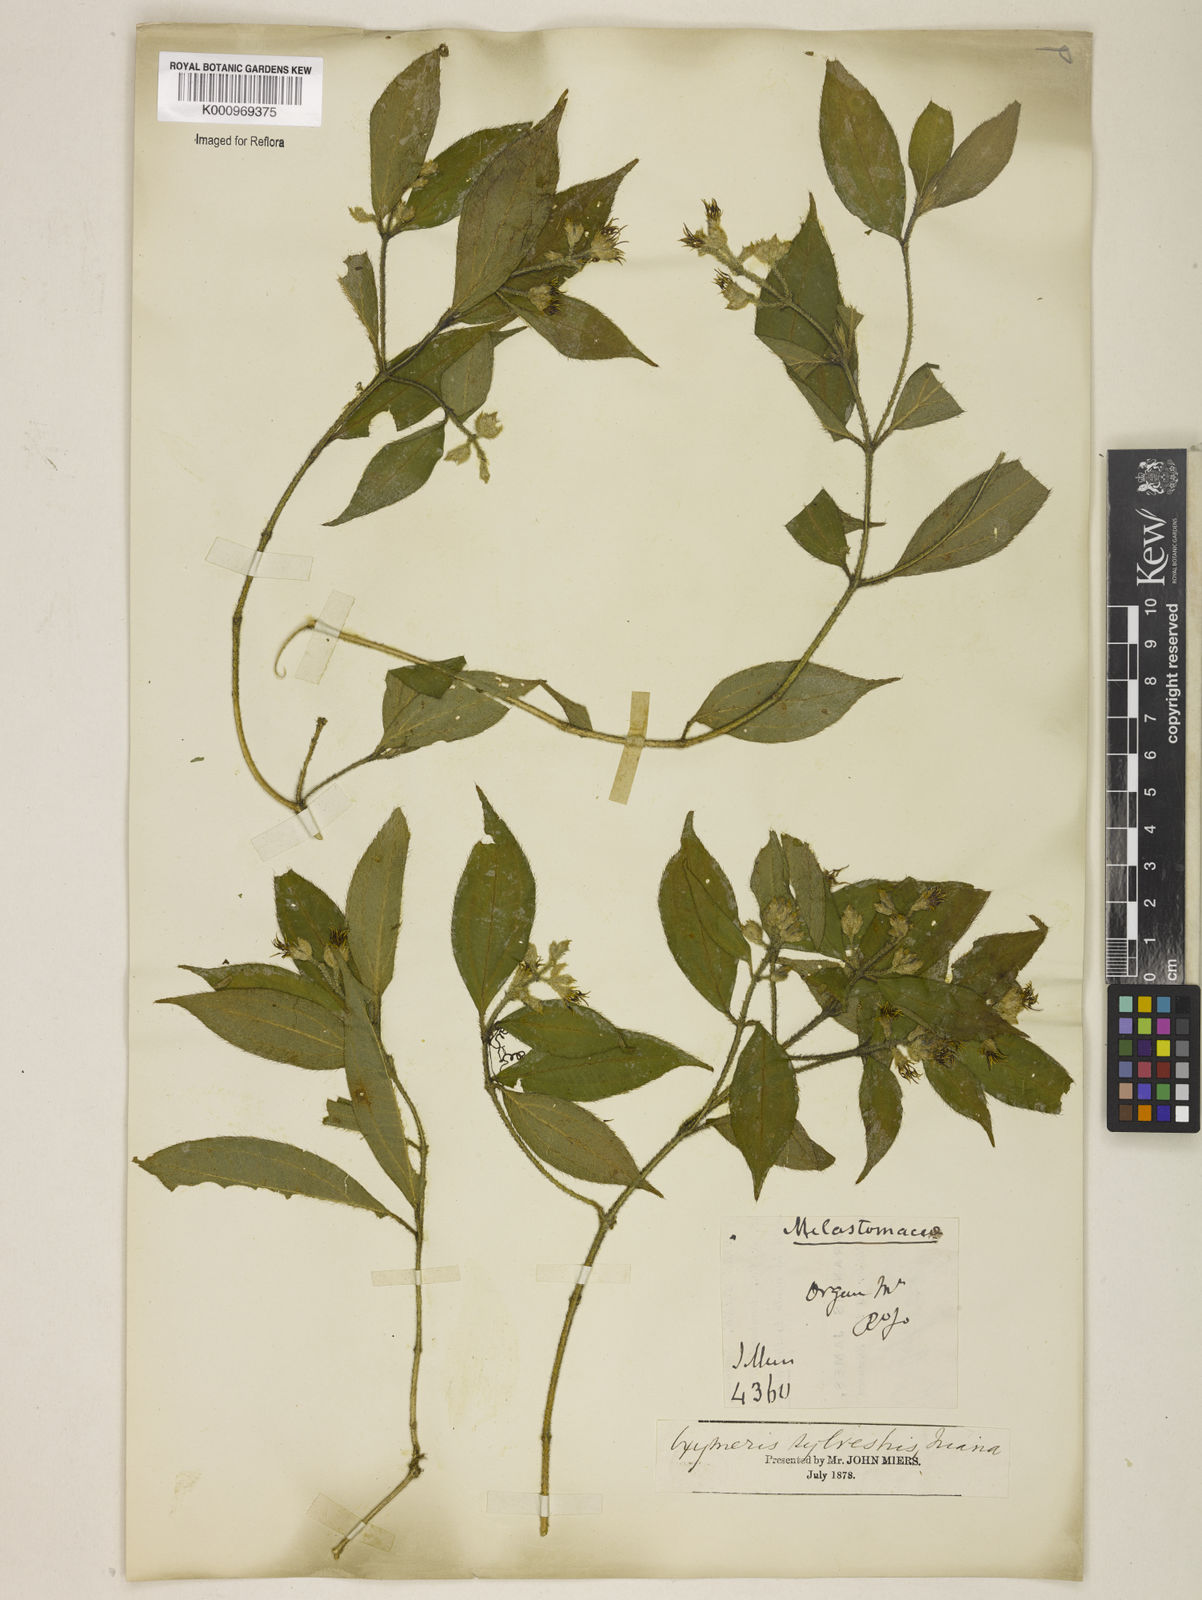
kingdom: Plantae
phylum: Tracheophyta
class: Magnoliopsida
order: Myrtales
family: Melastomataceae
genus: Miconia
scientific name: Miconia dubia
